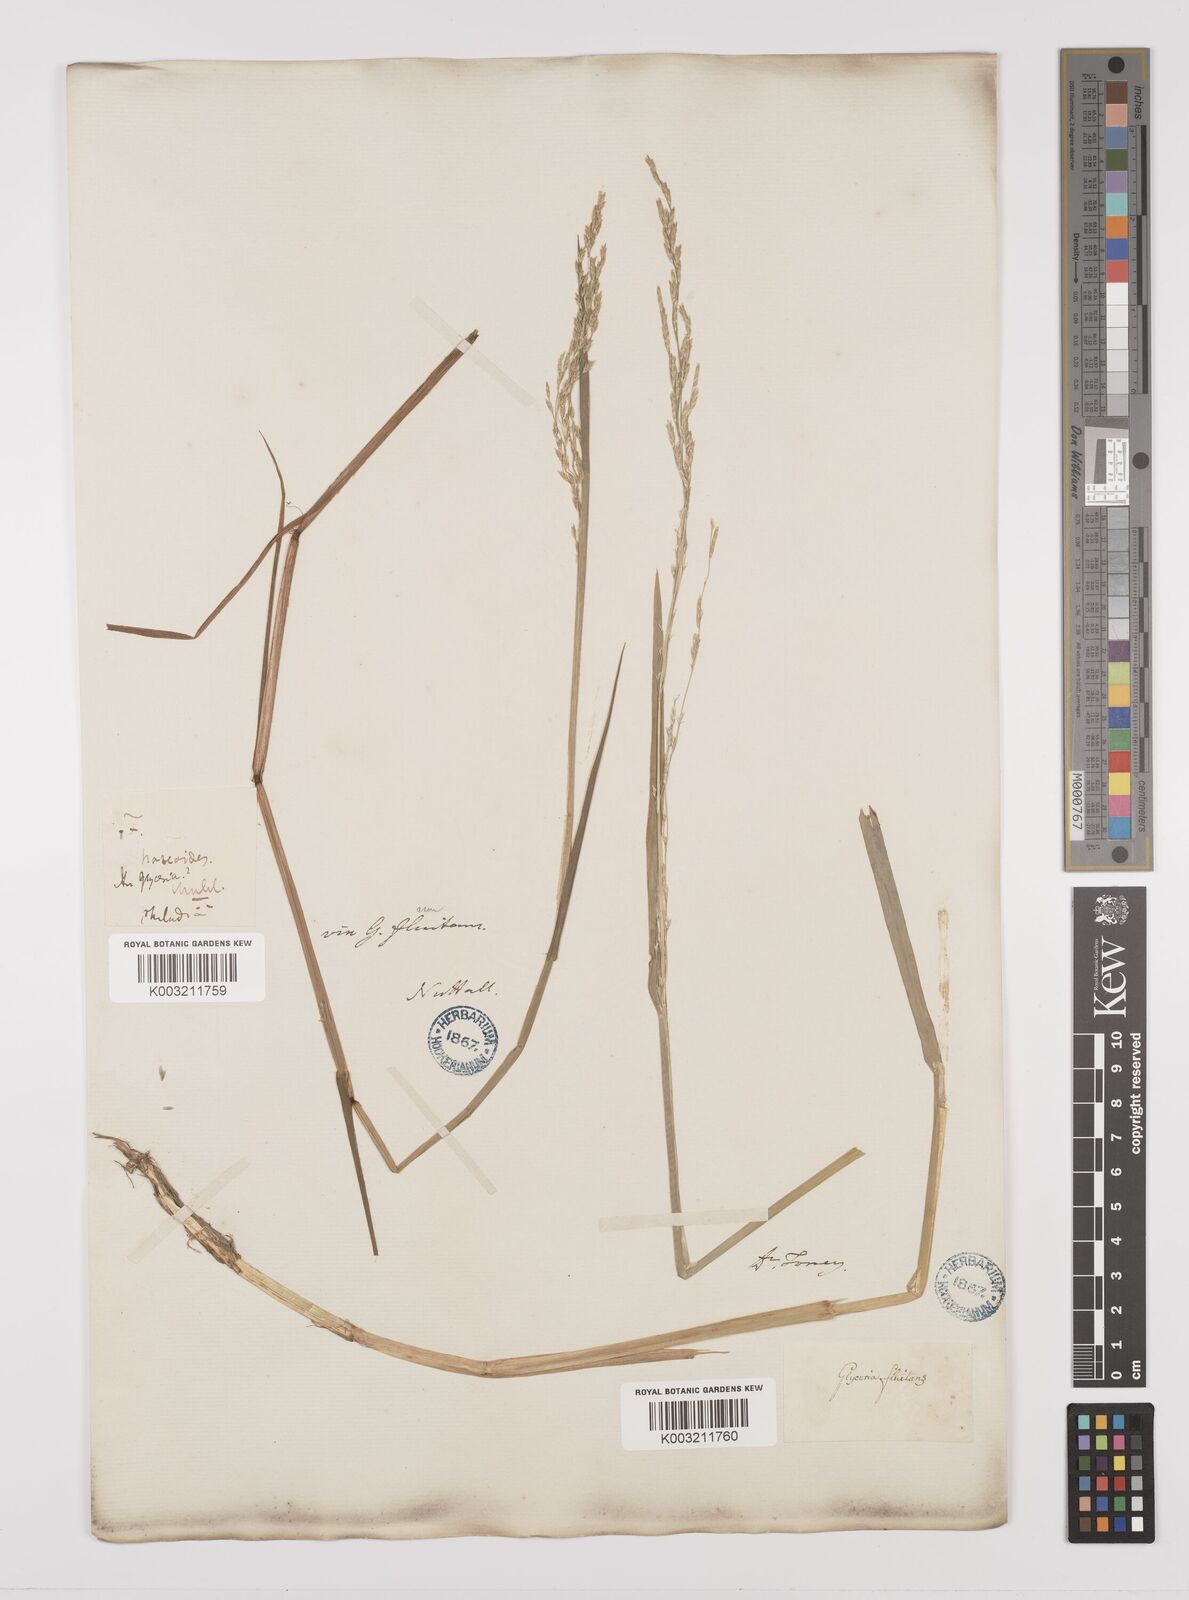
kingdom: Plantae
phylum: Tracheophyta
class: Liliopsida
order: Poales
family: Poaceae
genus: Glyceria
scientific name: Glyceria borealis
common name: Boreal glyceria
